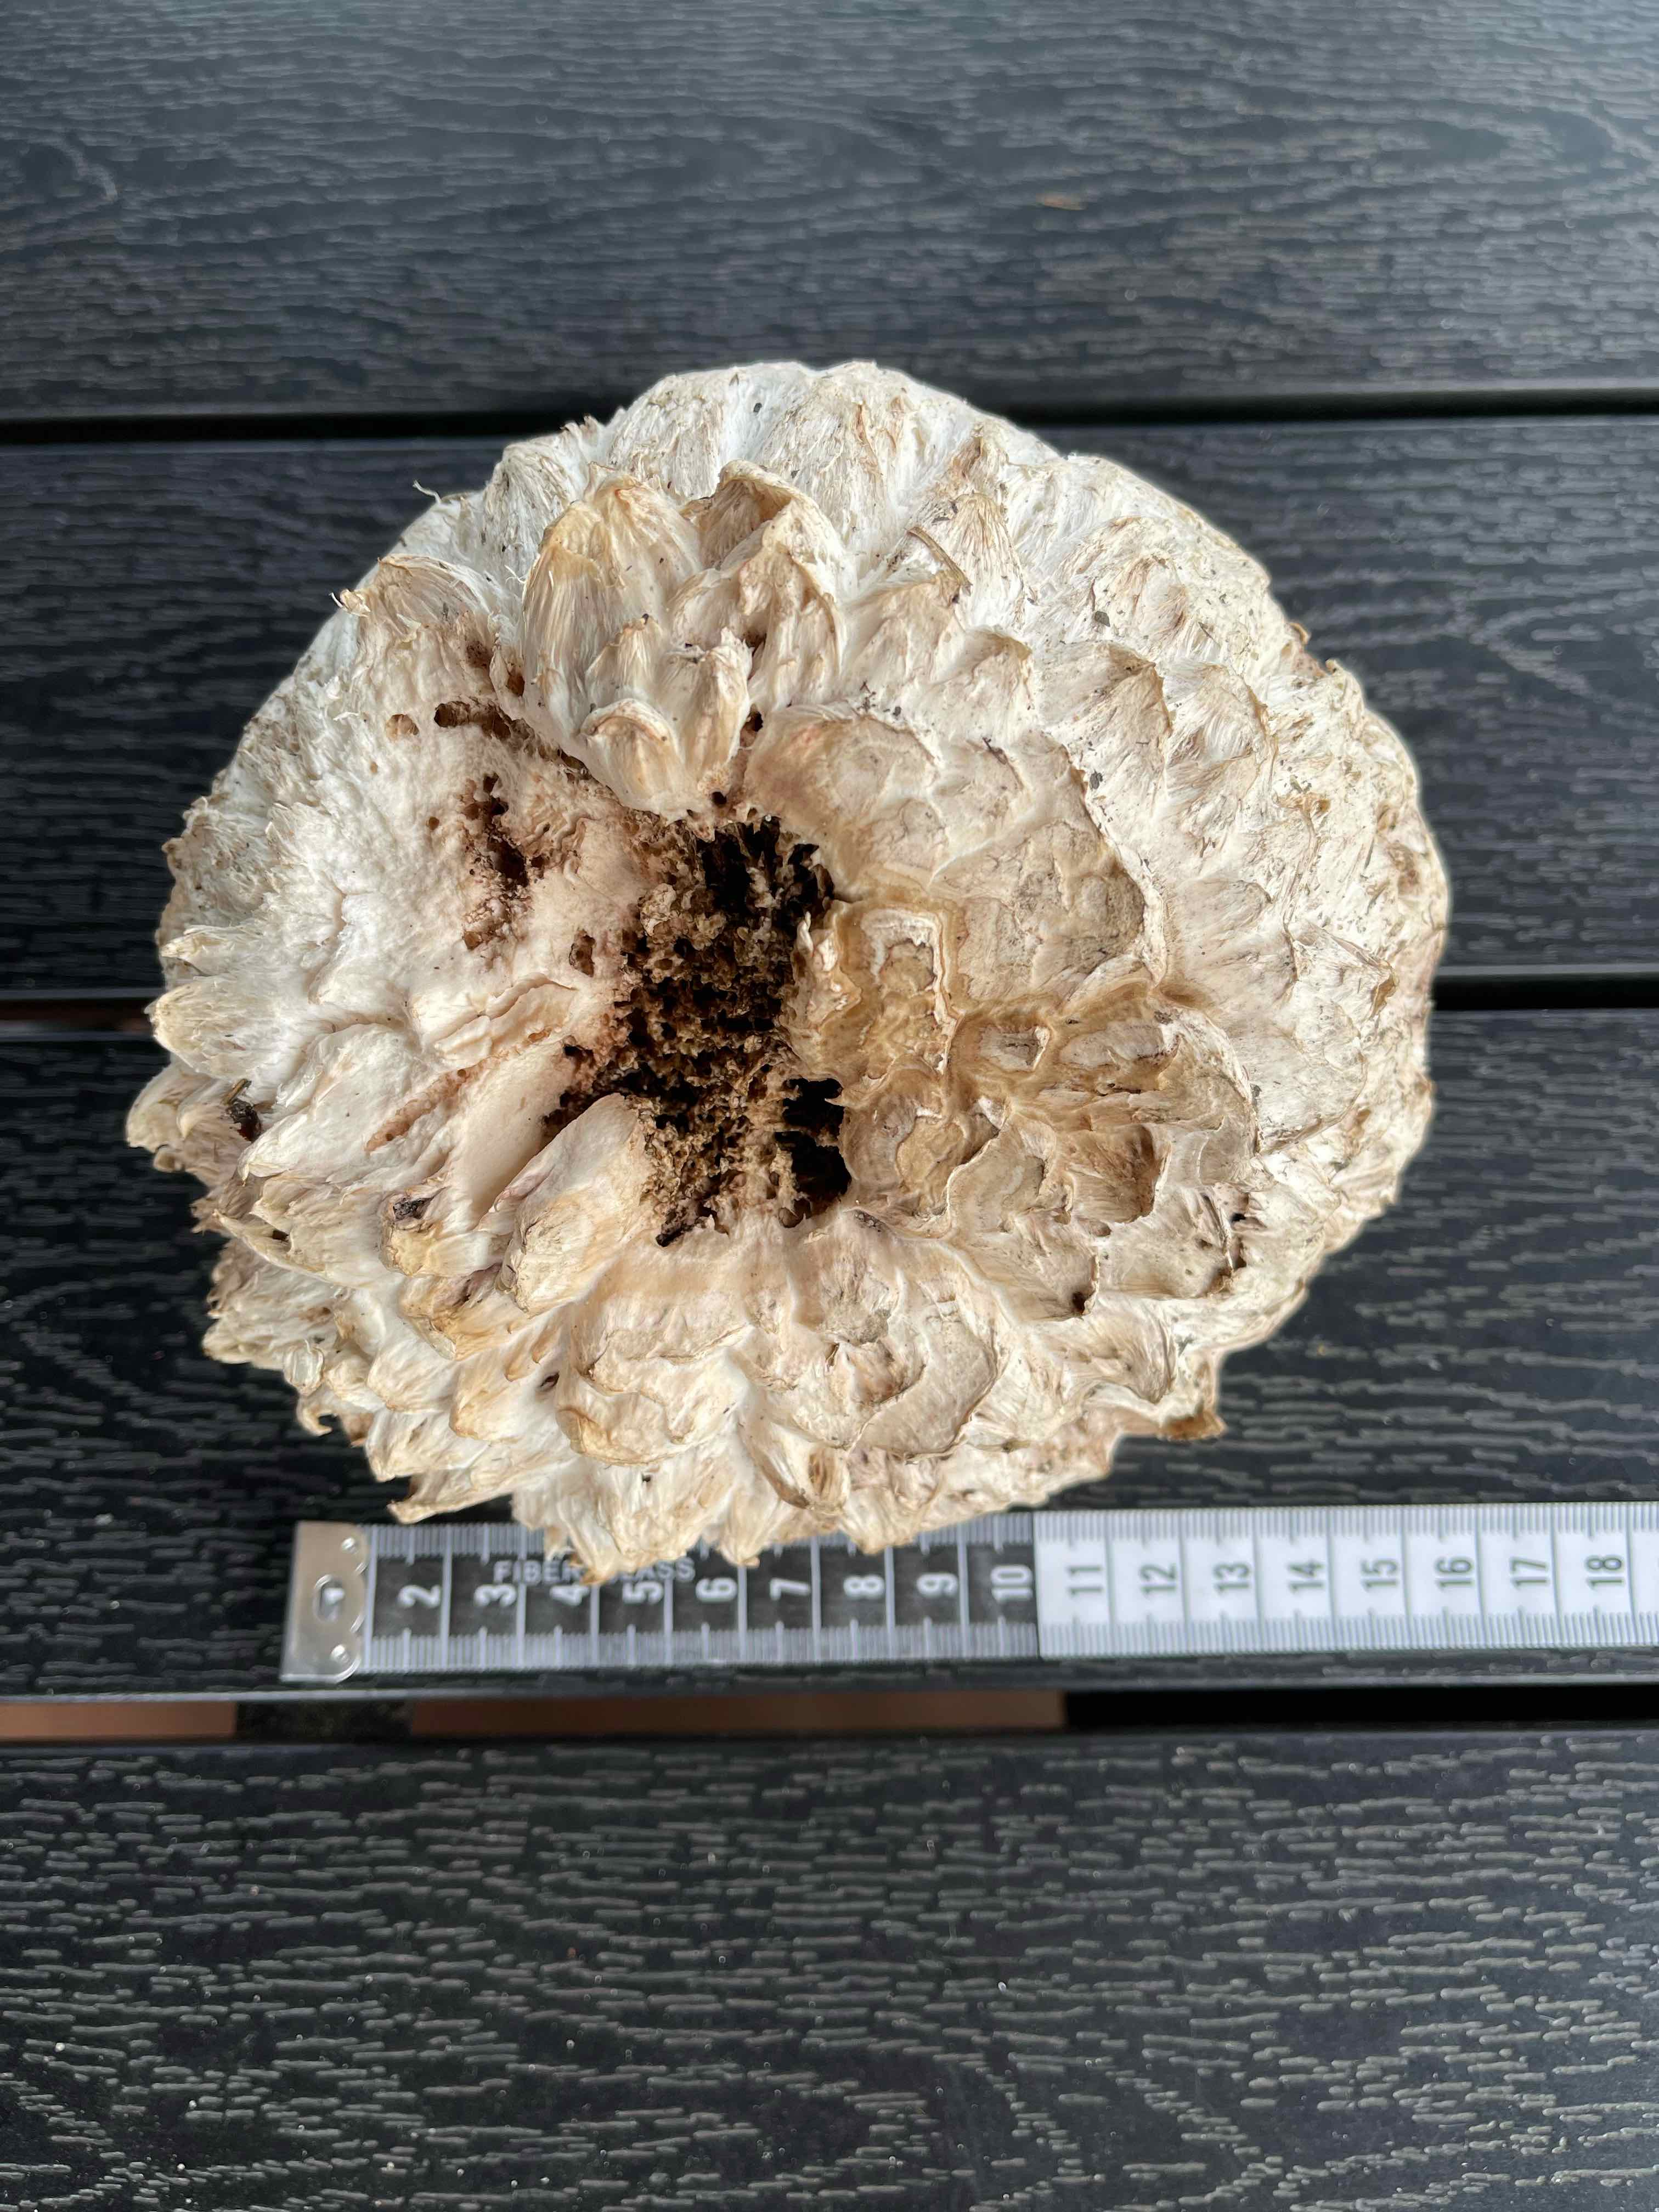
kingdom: Fungi
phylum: Basidiomycota
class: Agaricomycetes
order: Agaricales
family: Agaricaceae
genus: Agaricus
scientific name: Agaricus bernardii
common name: strandengs-champignon
